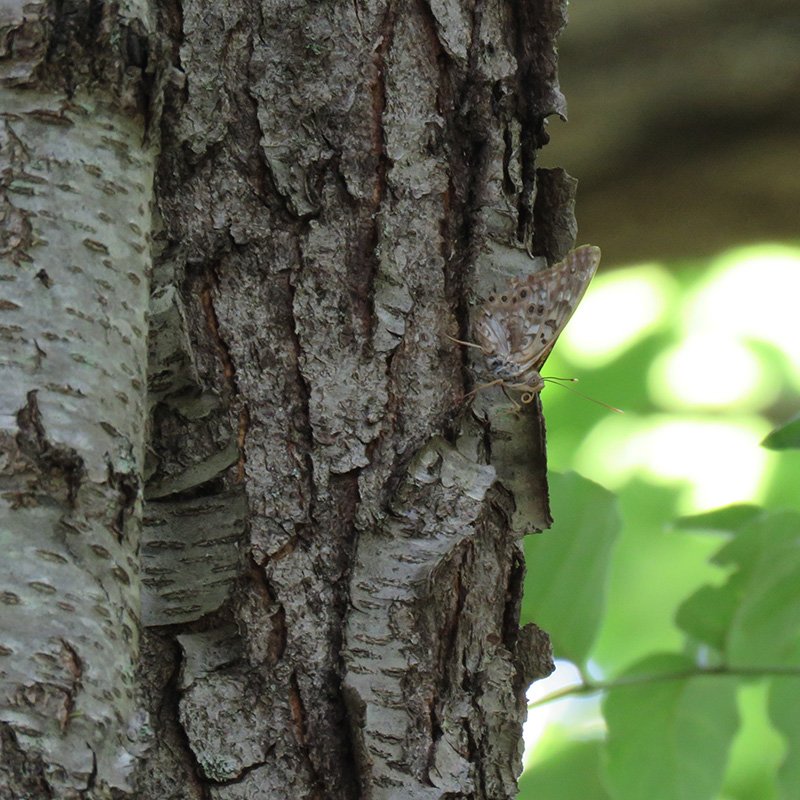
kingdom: Animalia
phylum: Arthropoda
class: Insecta
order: Lepidoptera
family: Nymphalidae
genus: Asterocampa
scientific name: Asterocampa celtis
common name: Hackberry Emperor
